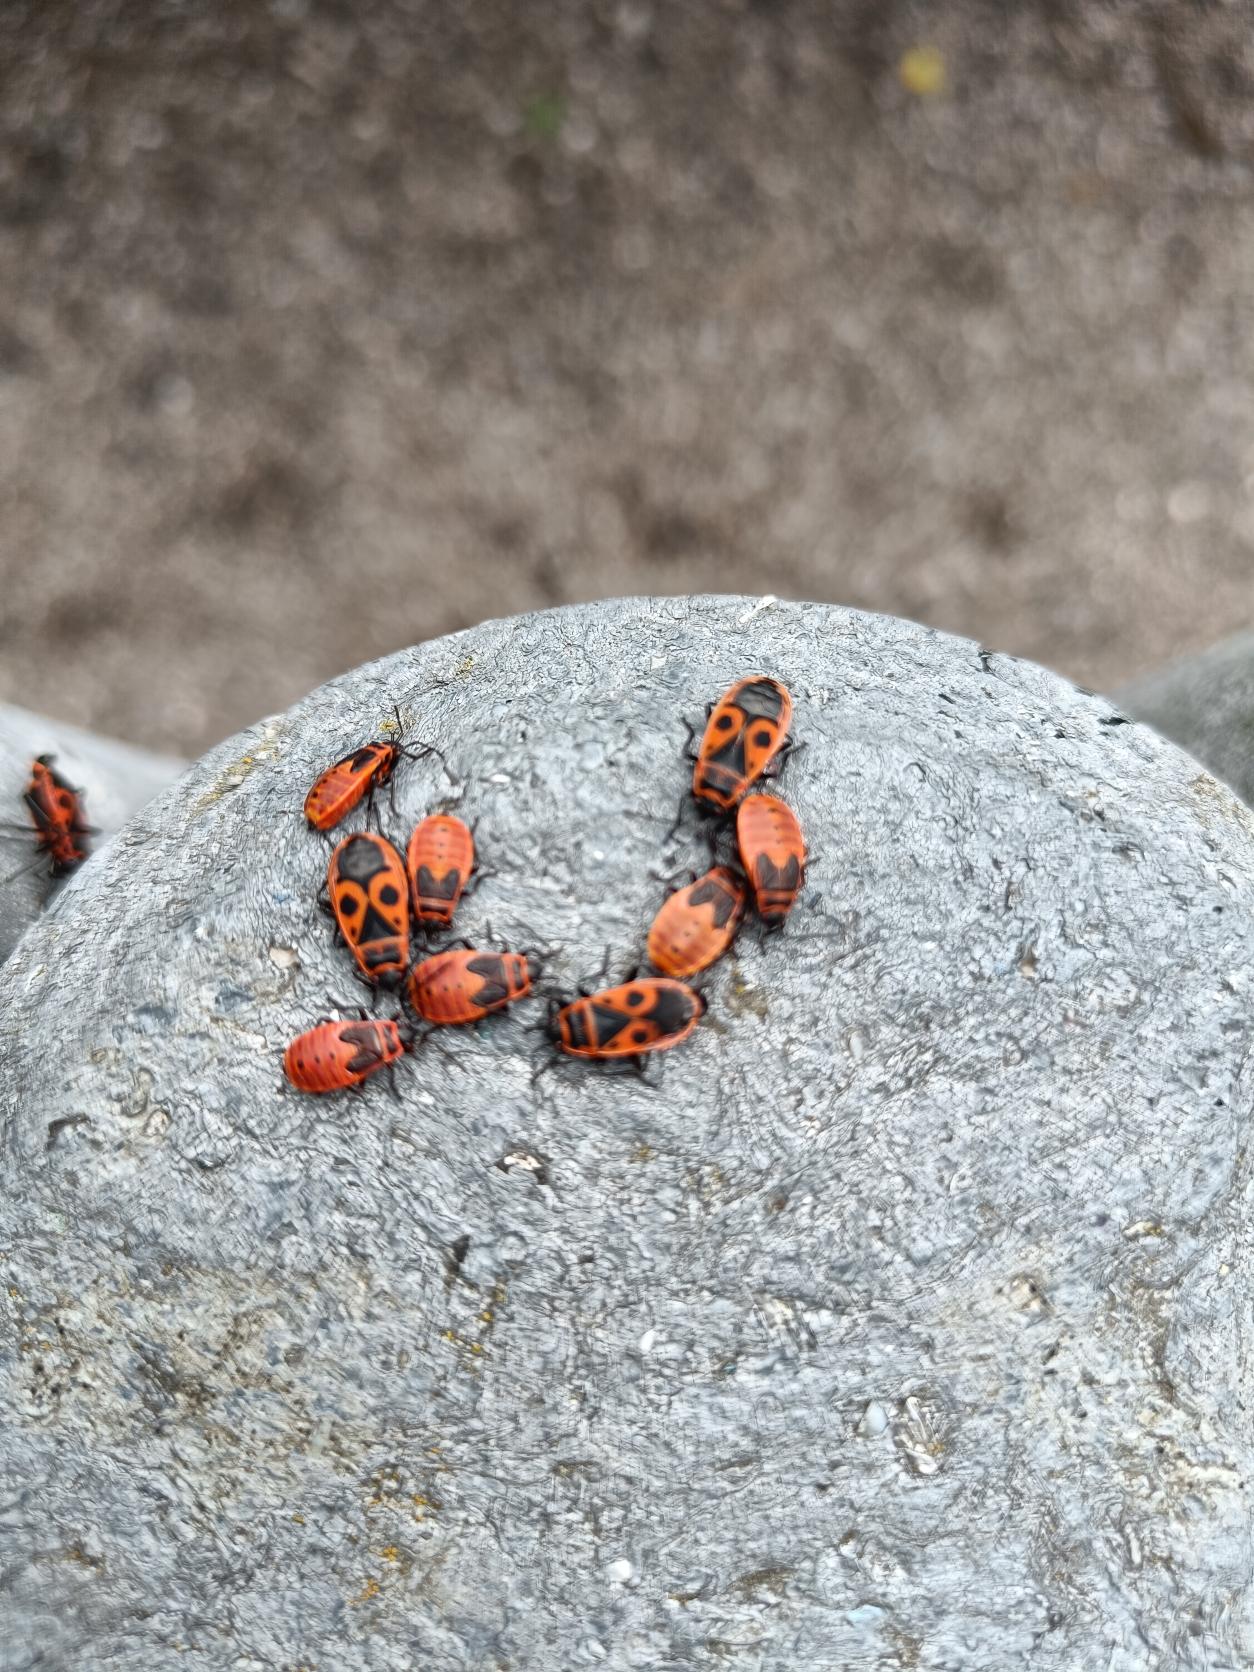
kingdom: Animalia
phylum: Arthropoda
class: Insecta
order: Hemiptera
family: Pyrrhocoridae
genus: Pyrrhocoris
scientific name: Pyrrhocoris apterus
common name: Ildtæge
